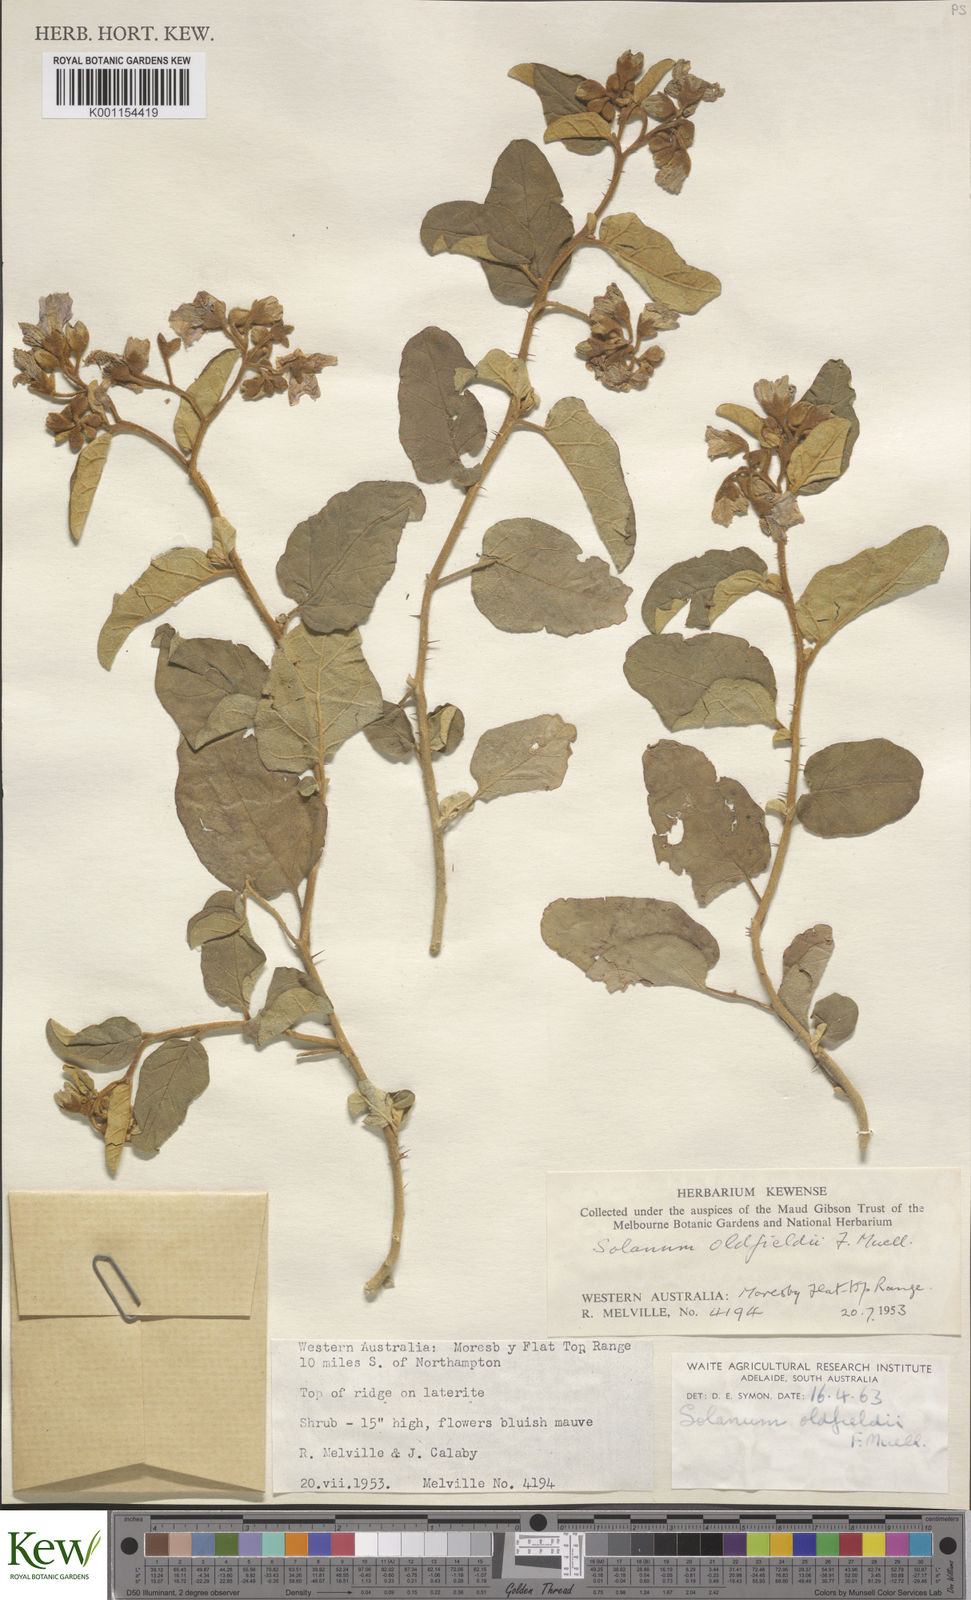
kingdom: Plantae
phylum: Tracheophyta
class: Magnoliopsida
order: Solanales
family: Solanaceae
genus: Solanum
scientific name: Solanum oldfieldii
